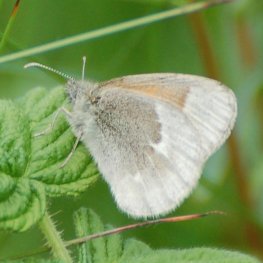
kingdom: Animalia
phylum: Arthropoda
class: Insecta
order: Lepidoptera
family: Nymphalidae
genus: Coenonympha
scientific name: Coenonympha tullia
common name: Large Heath
